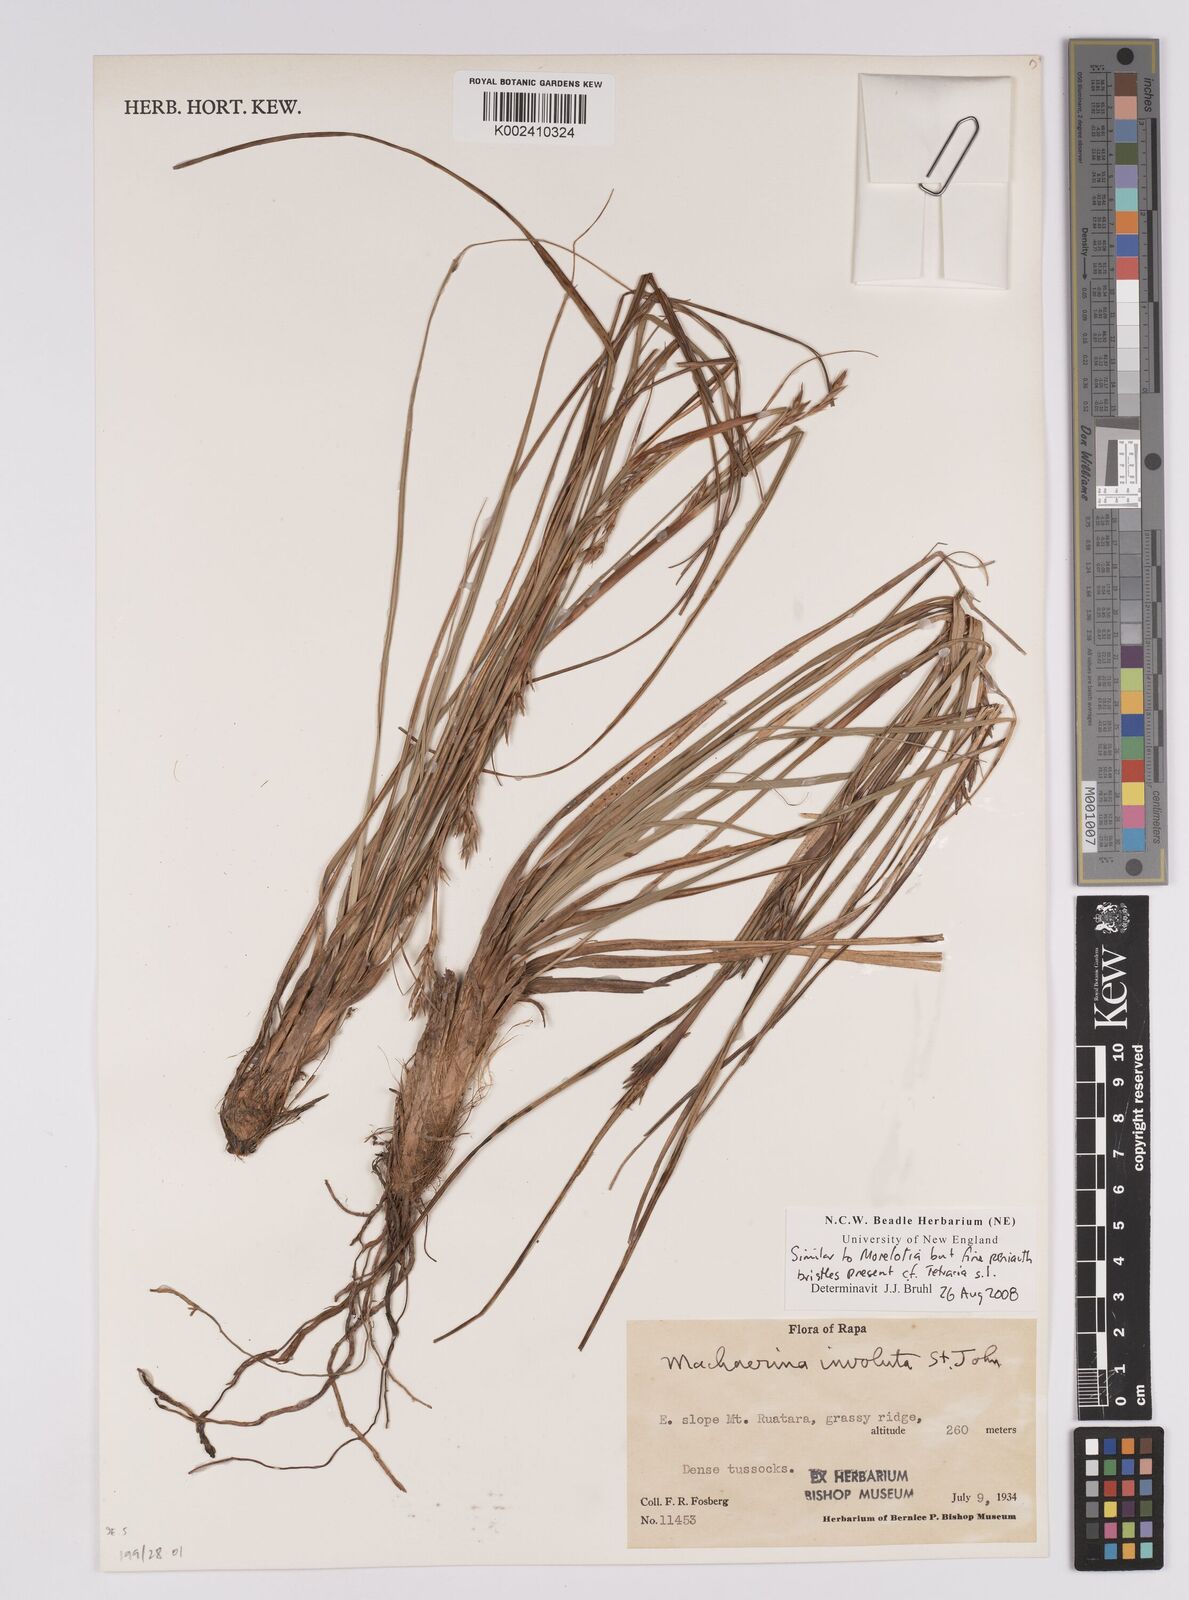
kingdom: Plantae
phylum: Tracheophyta
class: Liliopsida
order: Poales
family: Cyperaceae
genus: Morelotia
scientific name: Morelotia
